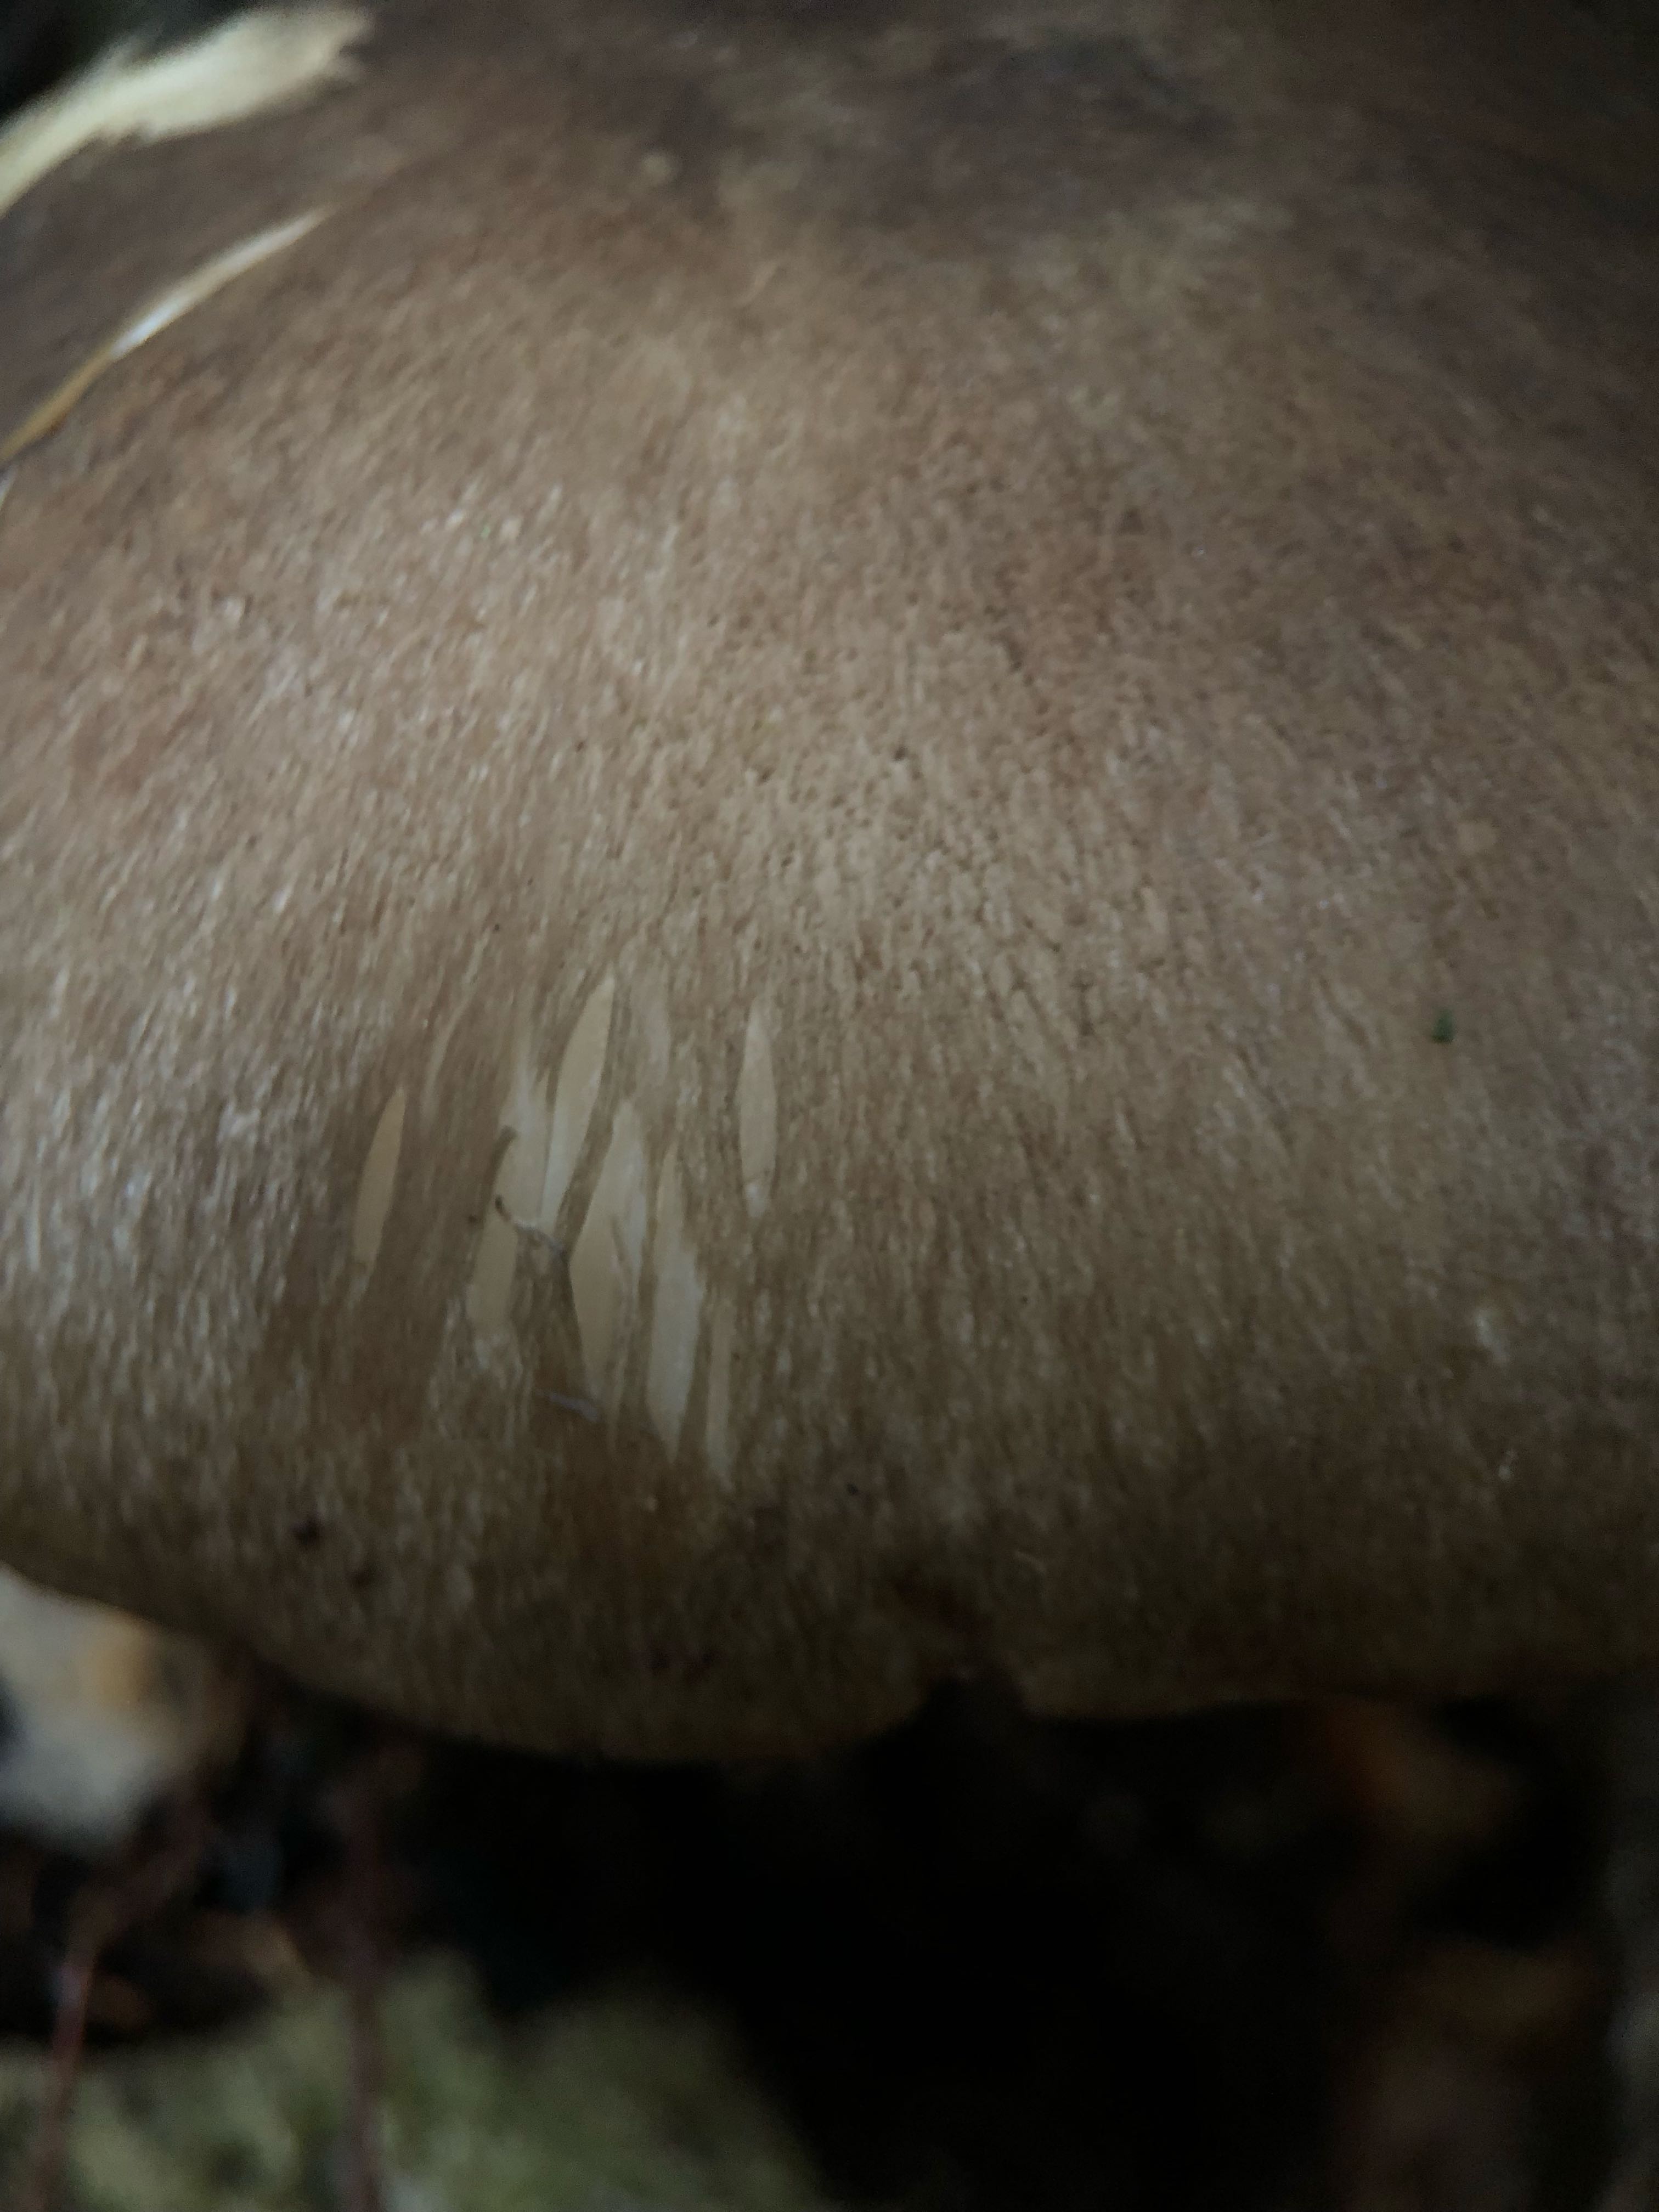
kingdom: Fungi
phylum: Basidiomycota
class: Agaricomycetes
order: Agaricales
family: Cortinariaceae
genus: Cortinarius
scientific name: Cortinarius torvus
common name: champignonagtig slørhat
